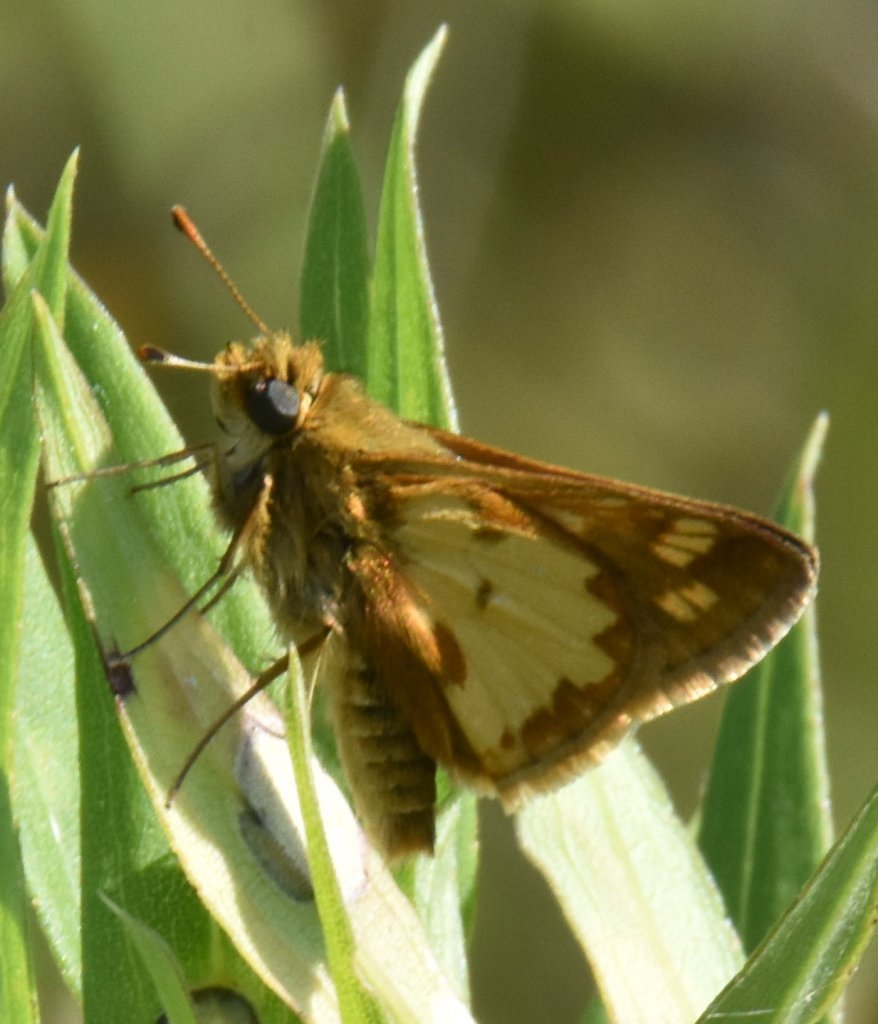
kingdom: Animalia
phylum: Arthropoda
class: Insecta
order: Lepidoptera
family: Hesperiidae
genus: Polites
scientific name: Polites coras
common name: Peck's Skipper
